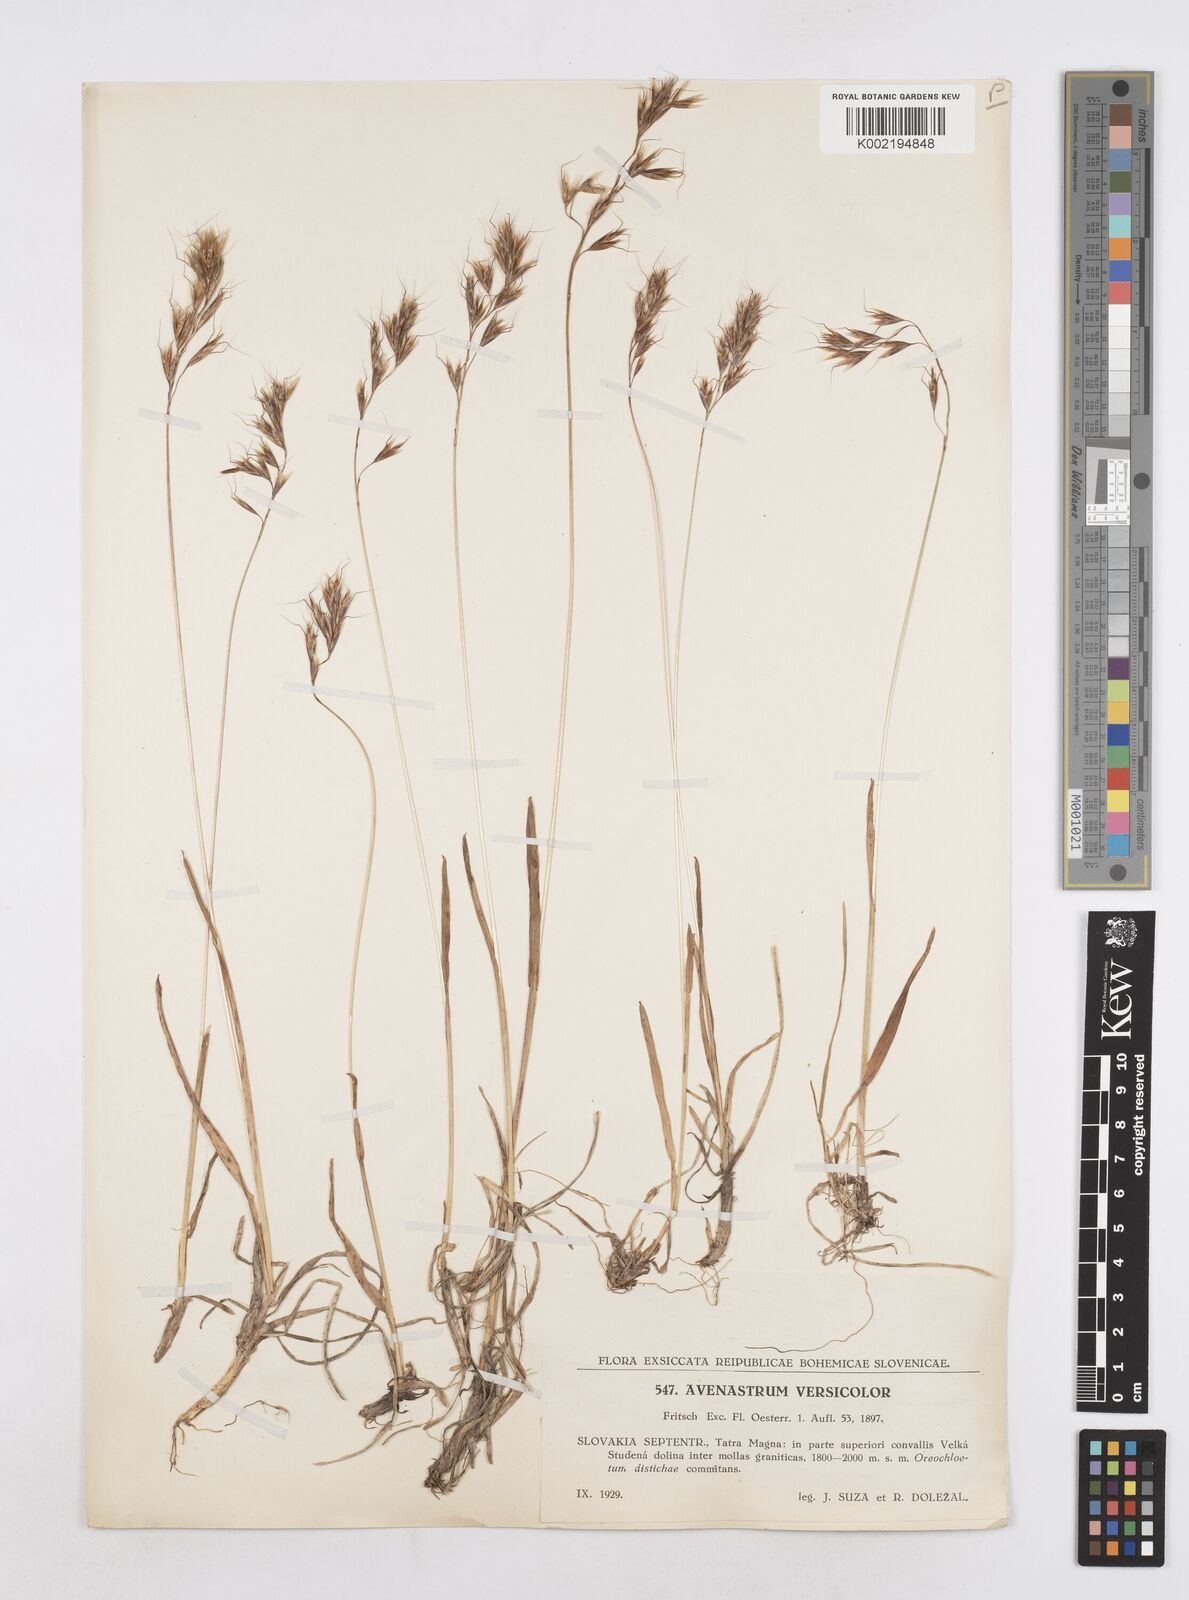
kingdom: Plantae
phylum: Tracheophyta
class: Liliopsida
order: Poales
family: Poaceae
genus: Helictochloa
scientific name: Helictochloa versicolor
